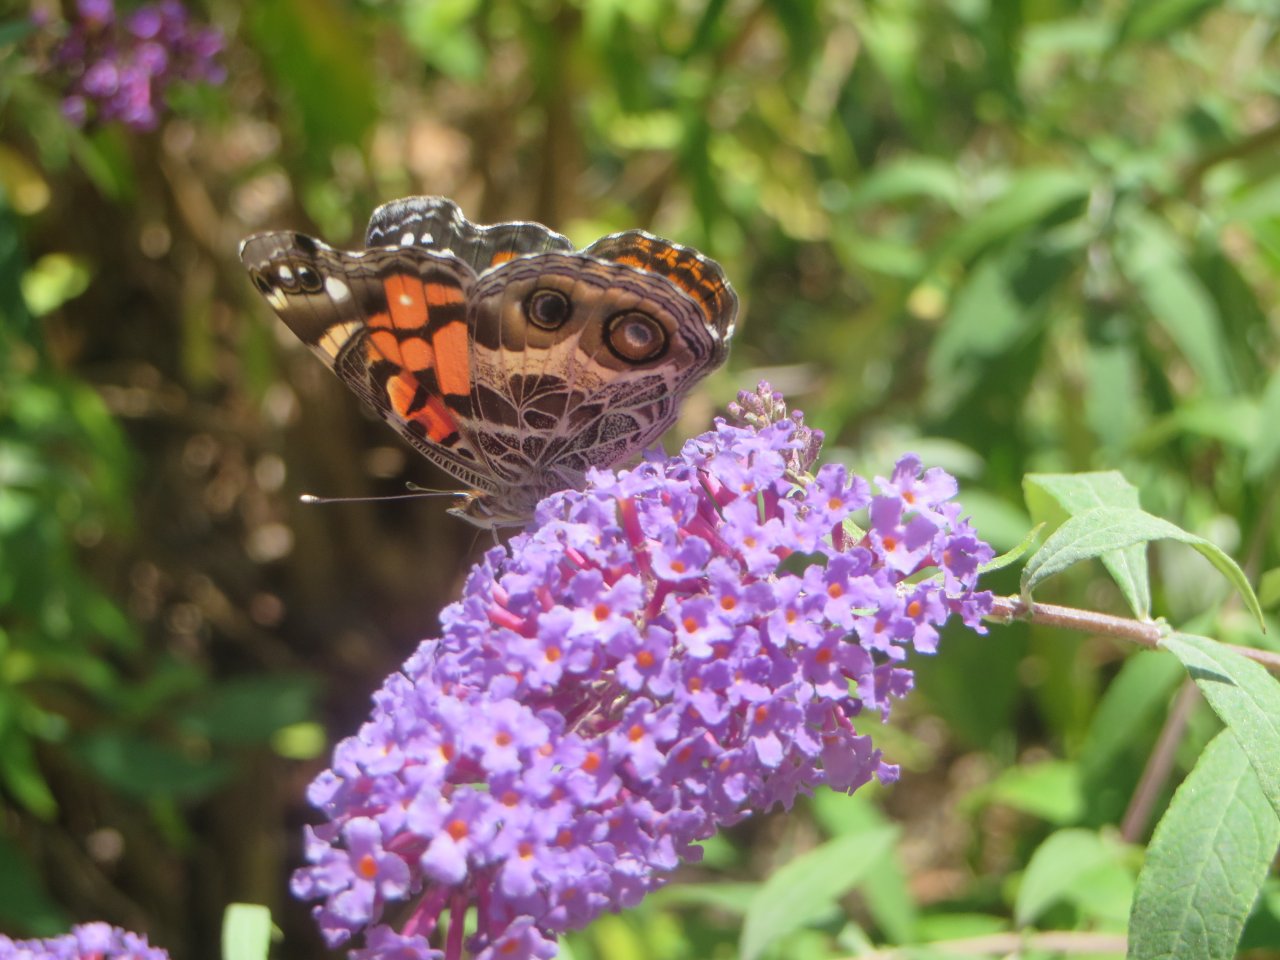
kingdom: Animalia
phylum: Arthropoda
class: Insecta
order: Lepidoptera
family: Nymphalidae
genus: Vanessa
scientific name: Vanessa virginiensis
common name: American Lady
